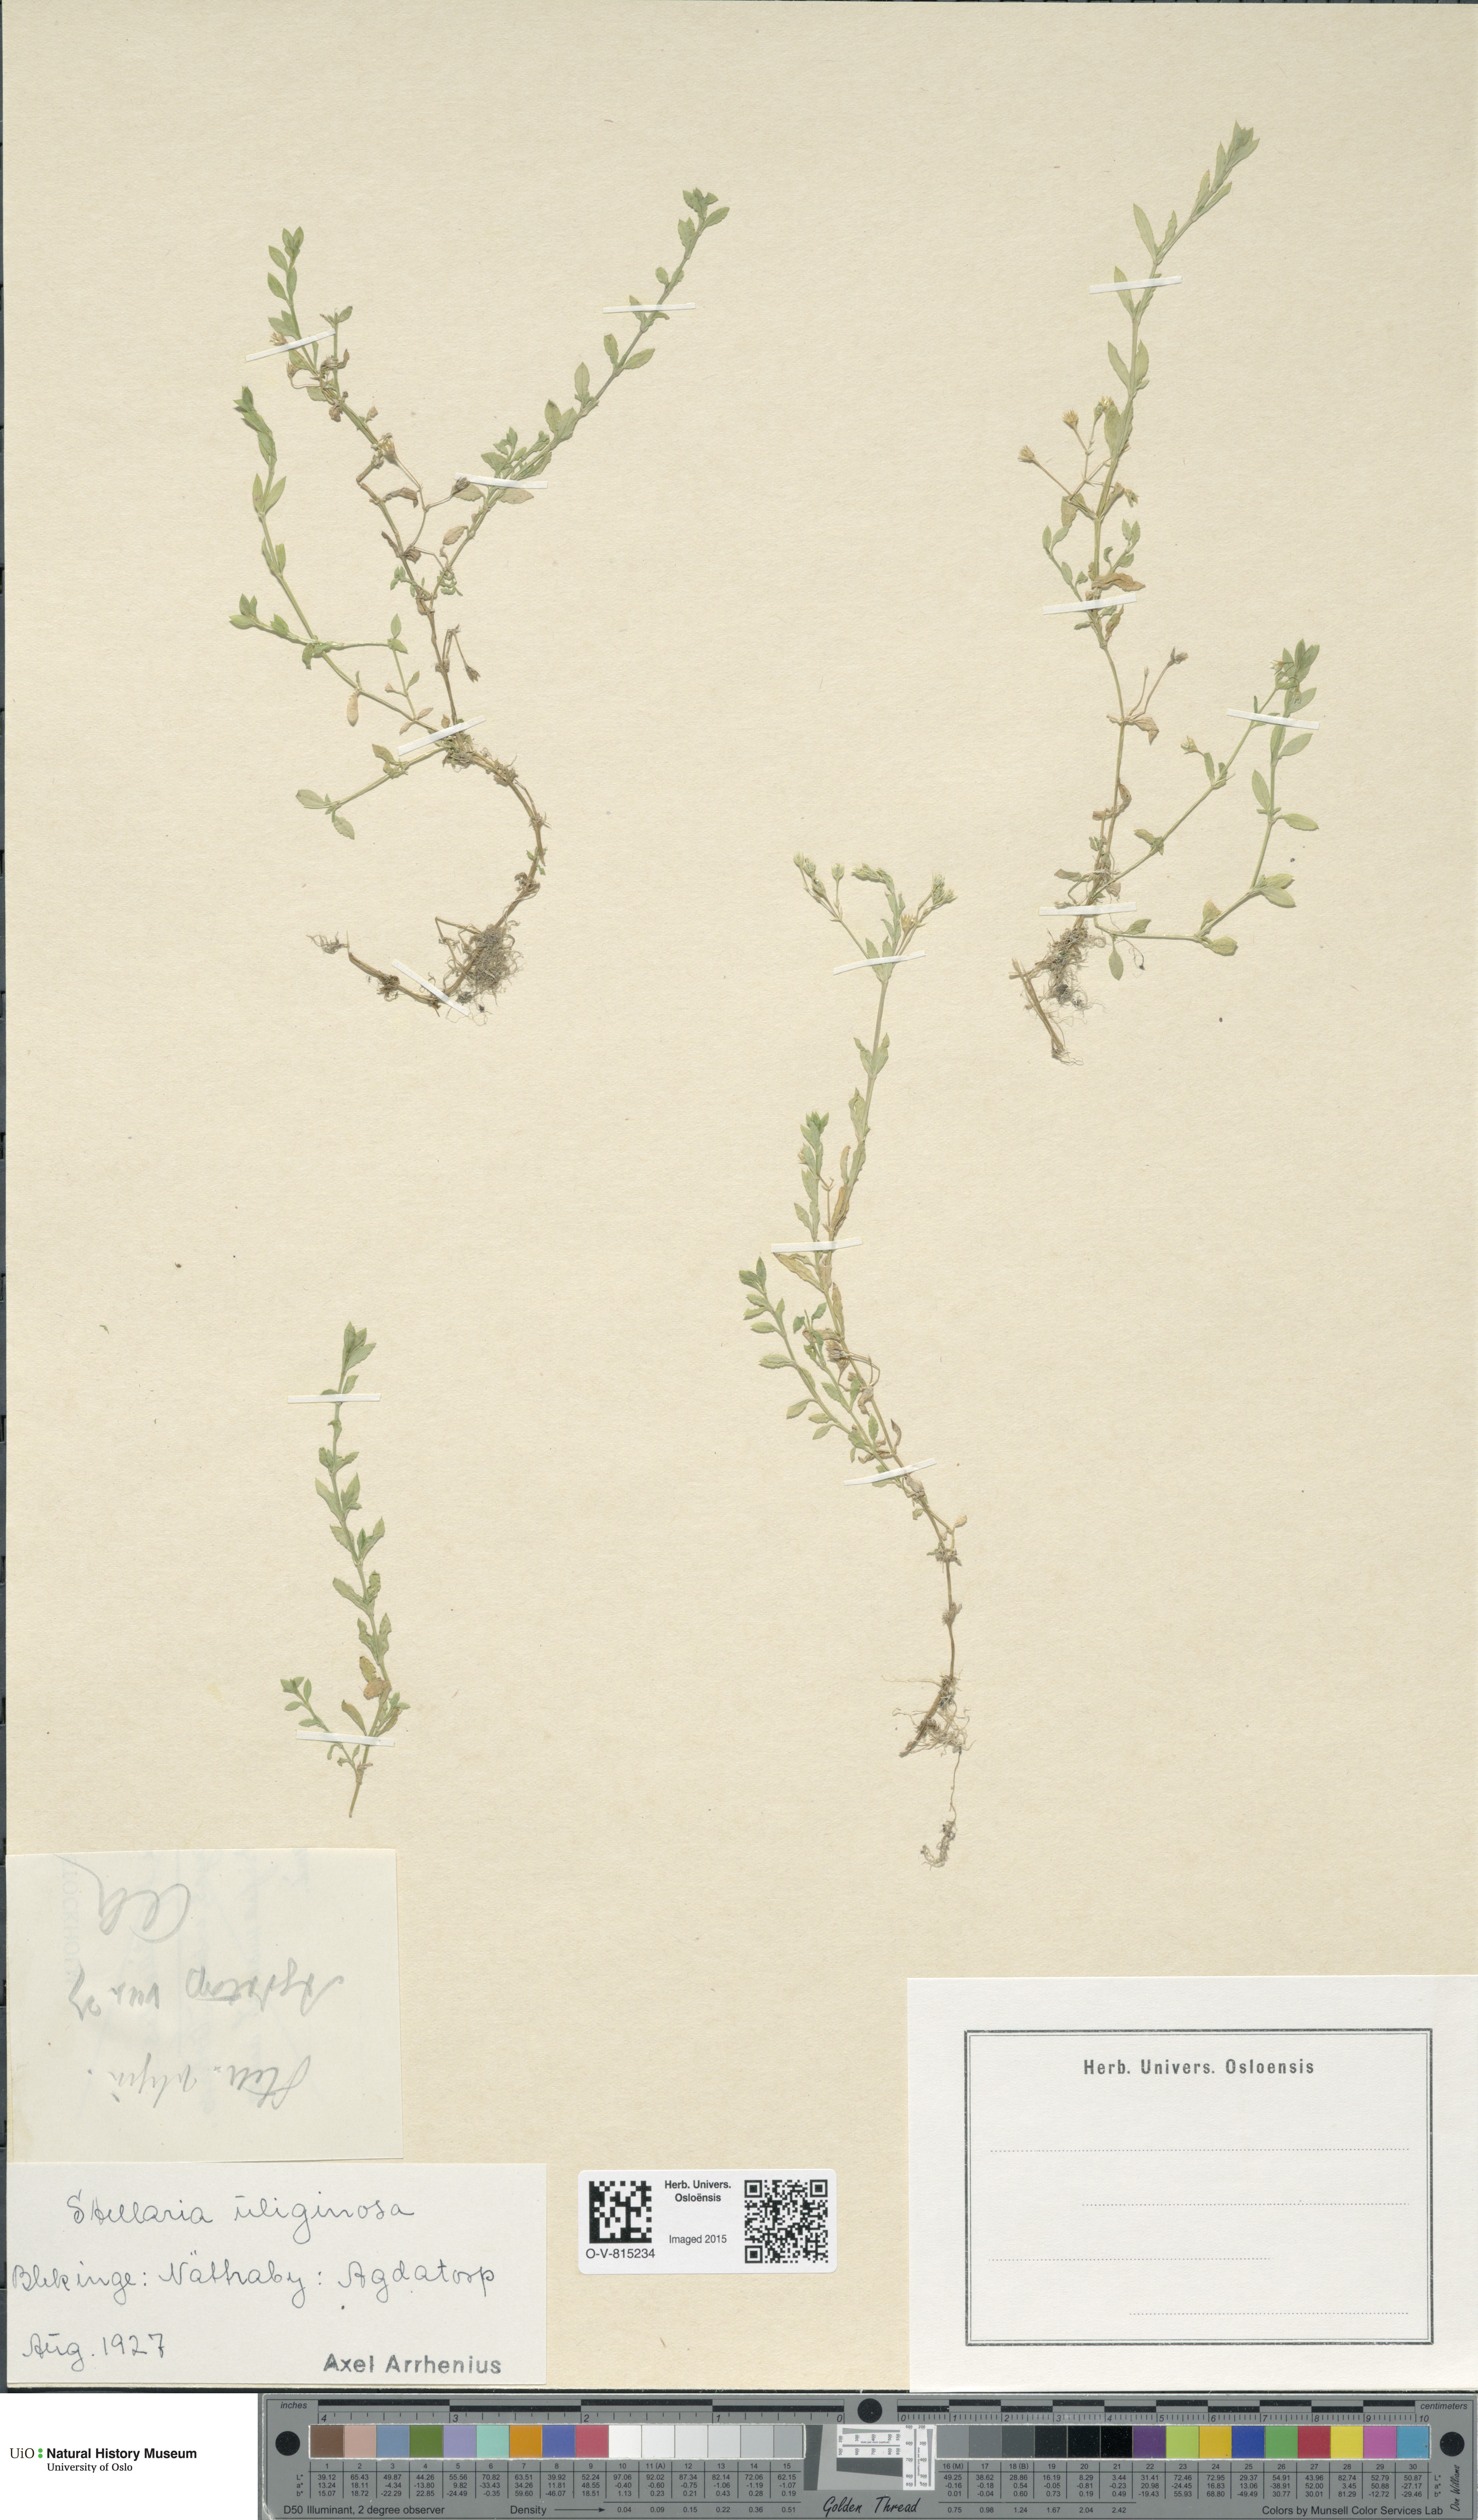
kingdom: Plantae
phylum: Tracheophyta
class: Magnoliopsida
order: Caryophyllales
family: Caryophyllaceae
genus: Stellaria
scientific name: Stellaria alsine
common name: Bog stitchwort
